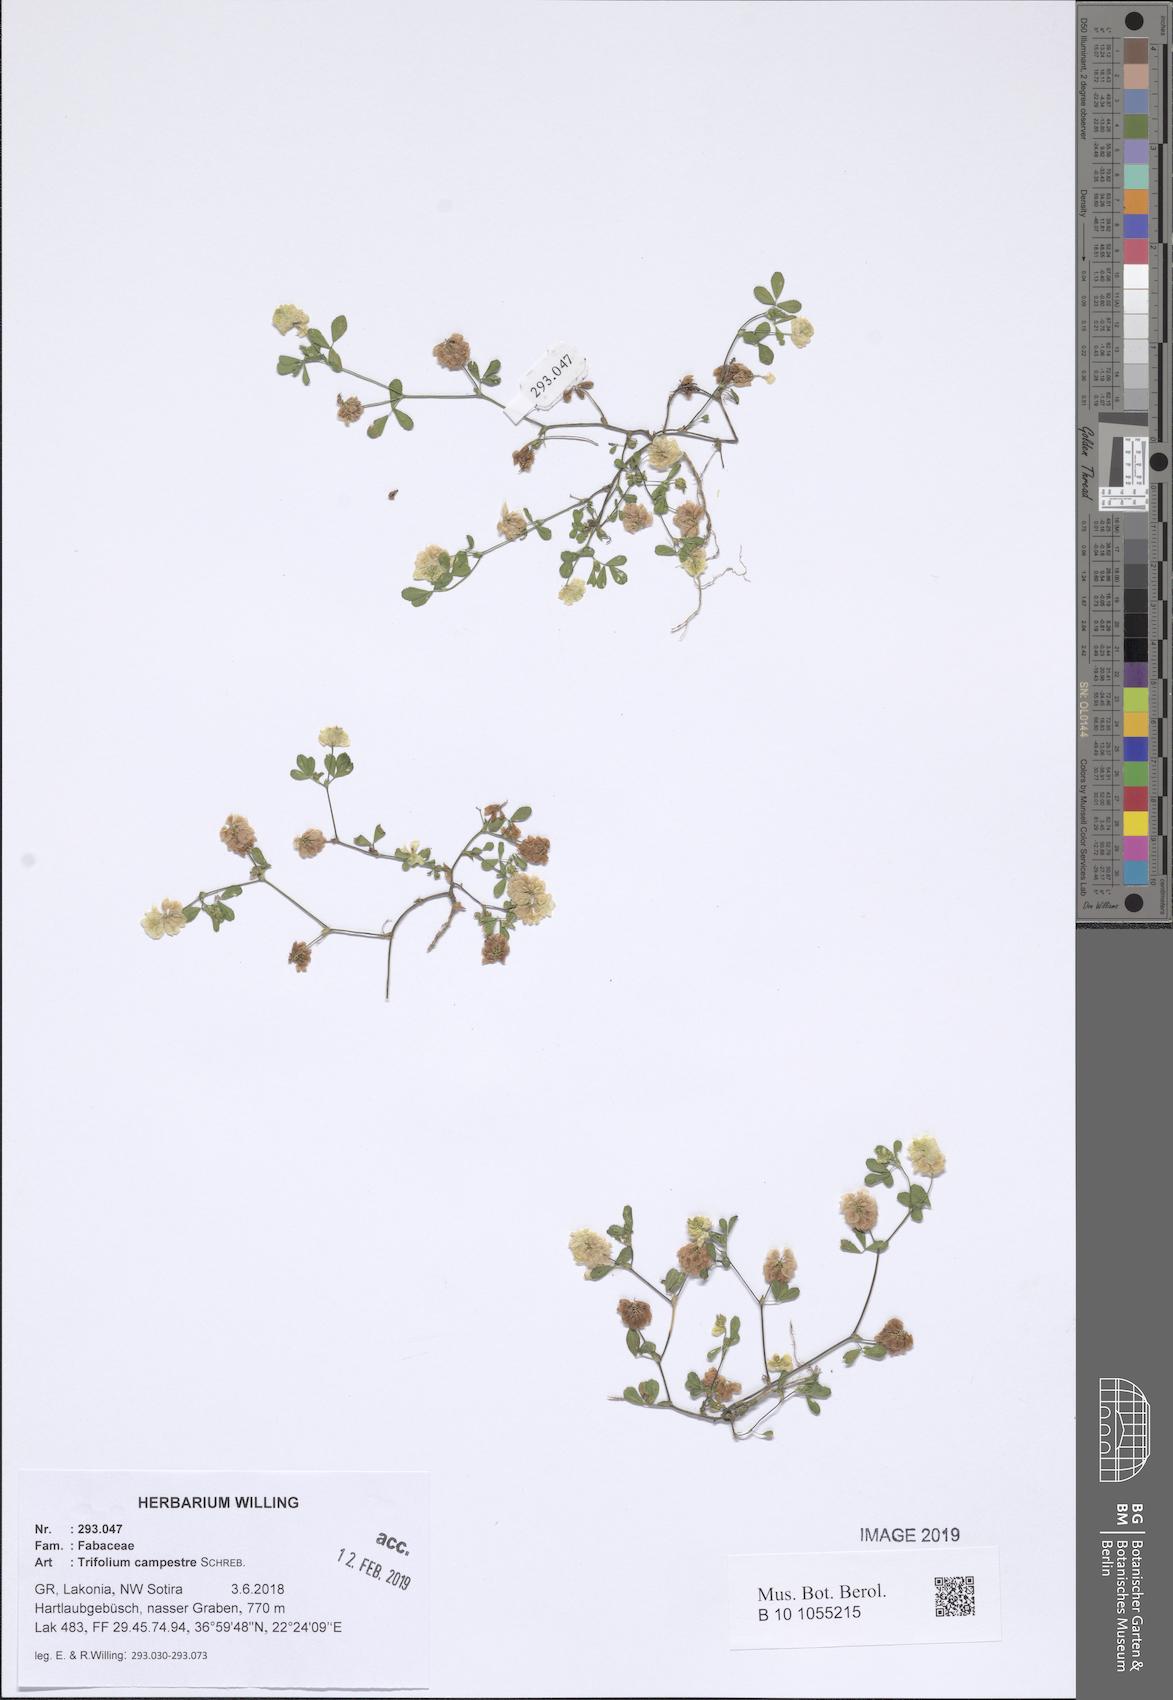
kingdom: Plantae
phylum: Tracheophyta
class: Magnoliopsida
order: Fabales
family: Fabaceae
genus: Trifolium
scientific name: Trifolium campestre
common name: Field clover
